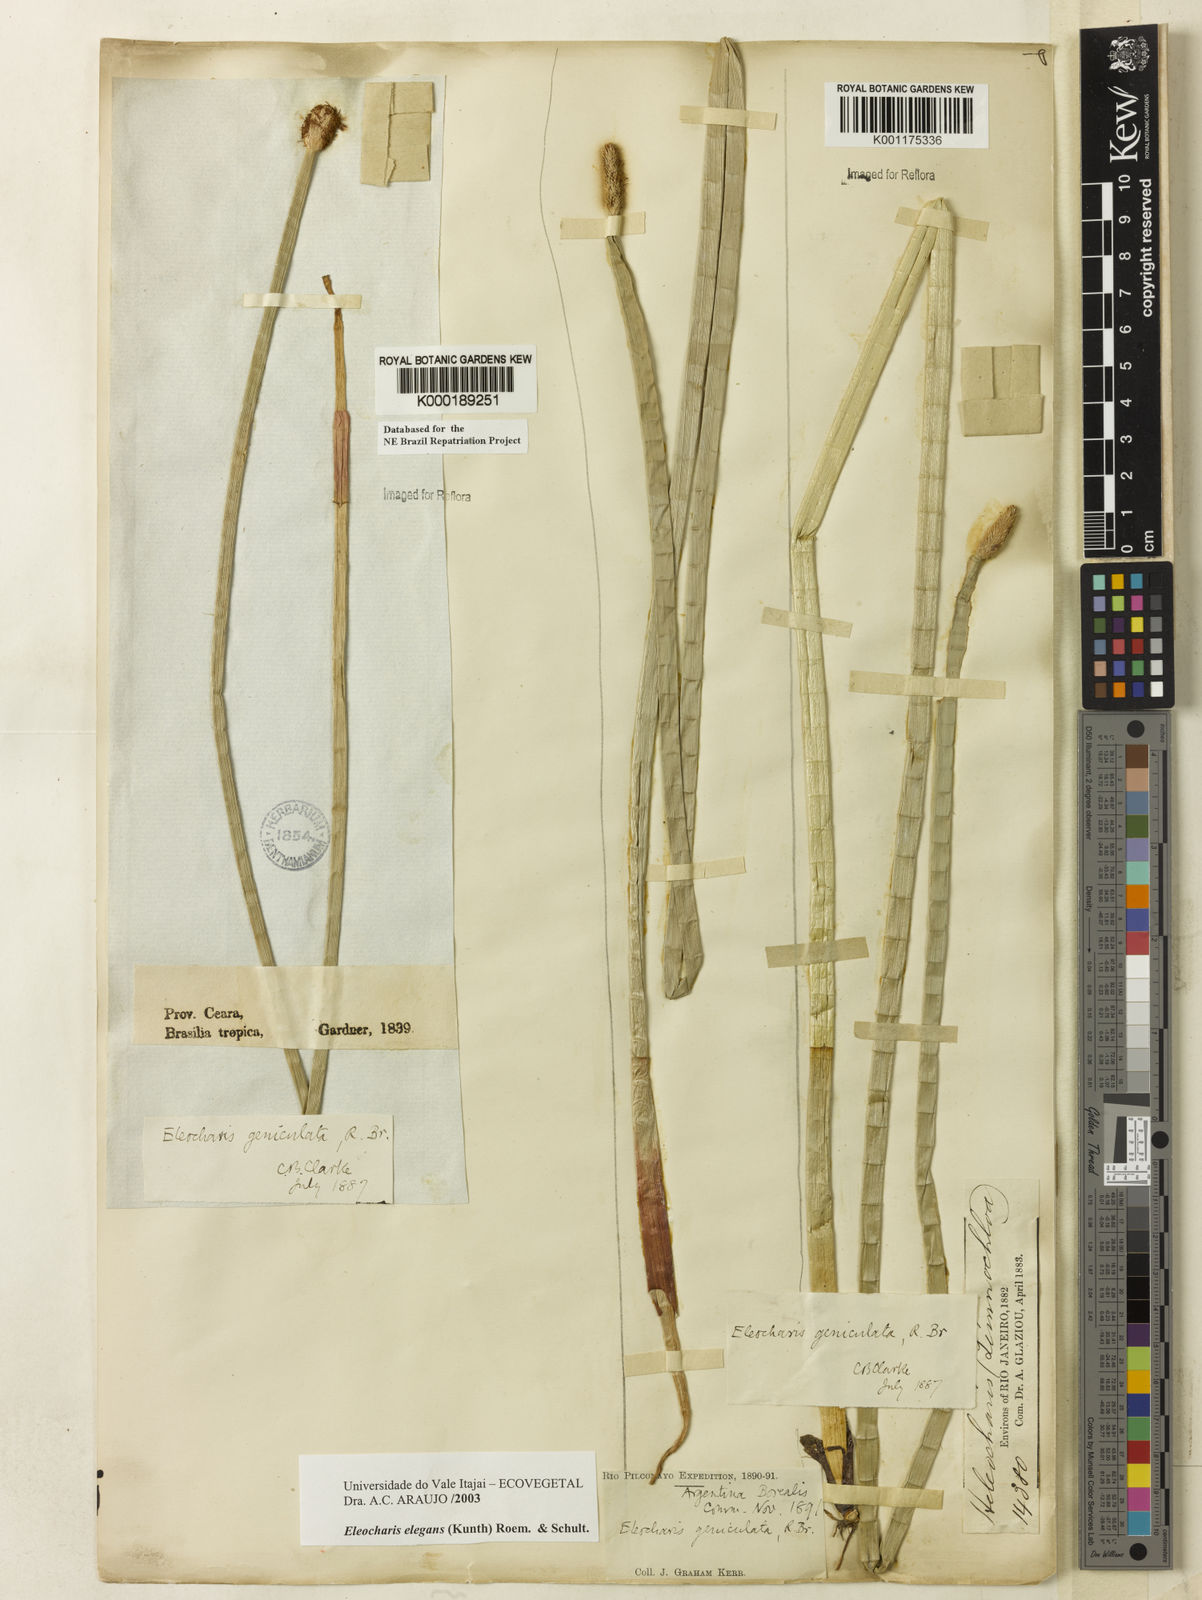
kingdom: Plantae
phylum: Tracheophyta
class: Liliopsida
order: Poales
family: Cyperaceae
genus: Eleocharis
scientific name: Eleocharis elegans
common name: Elegant spike-rush
